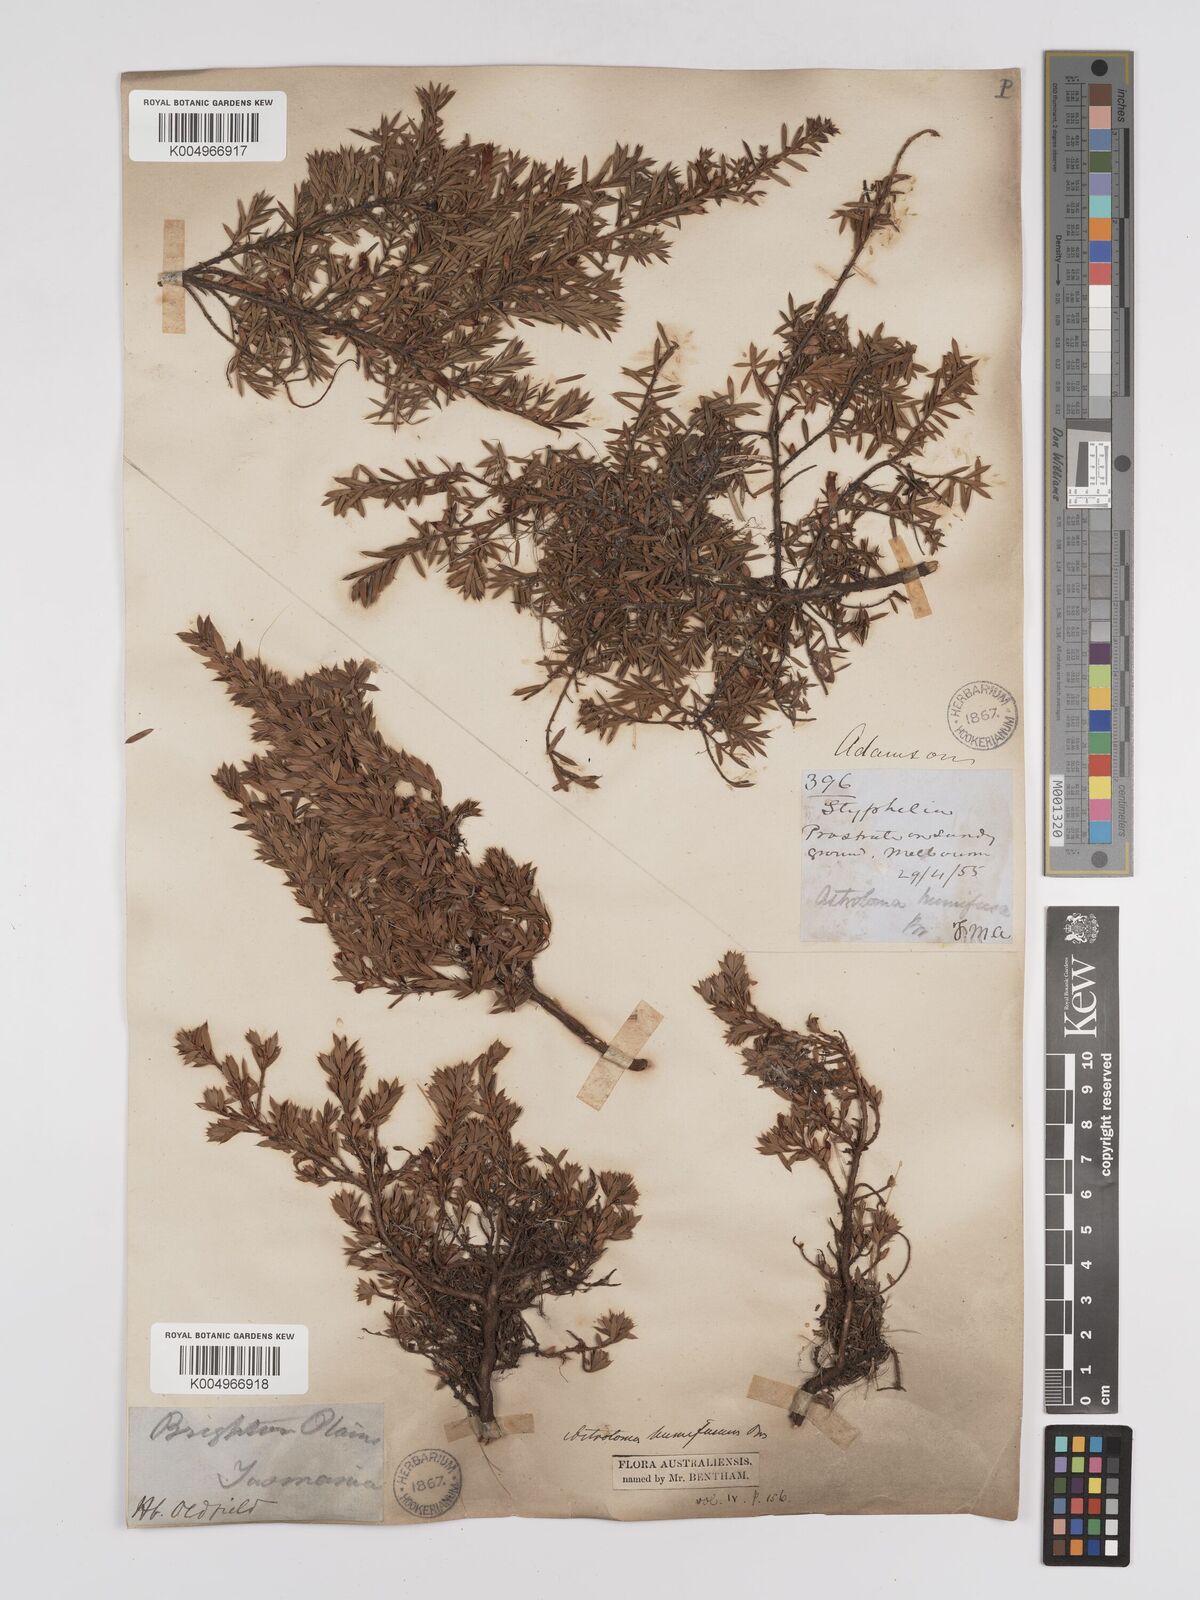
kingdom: Plantae
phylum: Tracheophyta
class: Magnoliopsida
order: Ericales
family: Ericaceae
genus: Styphelia
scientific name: Styphelia humifusa
